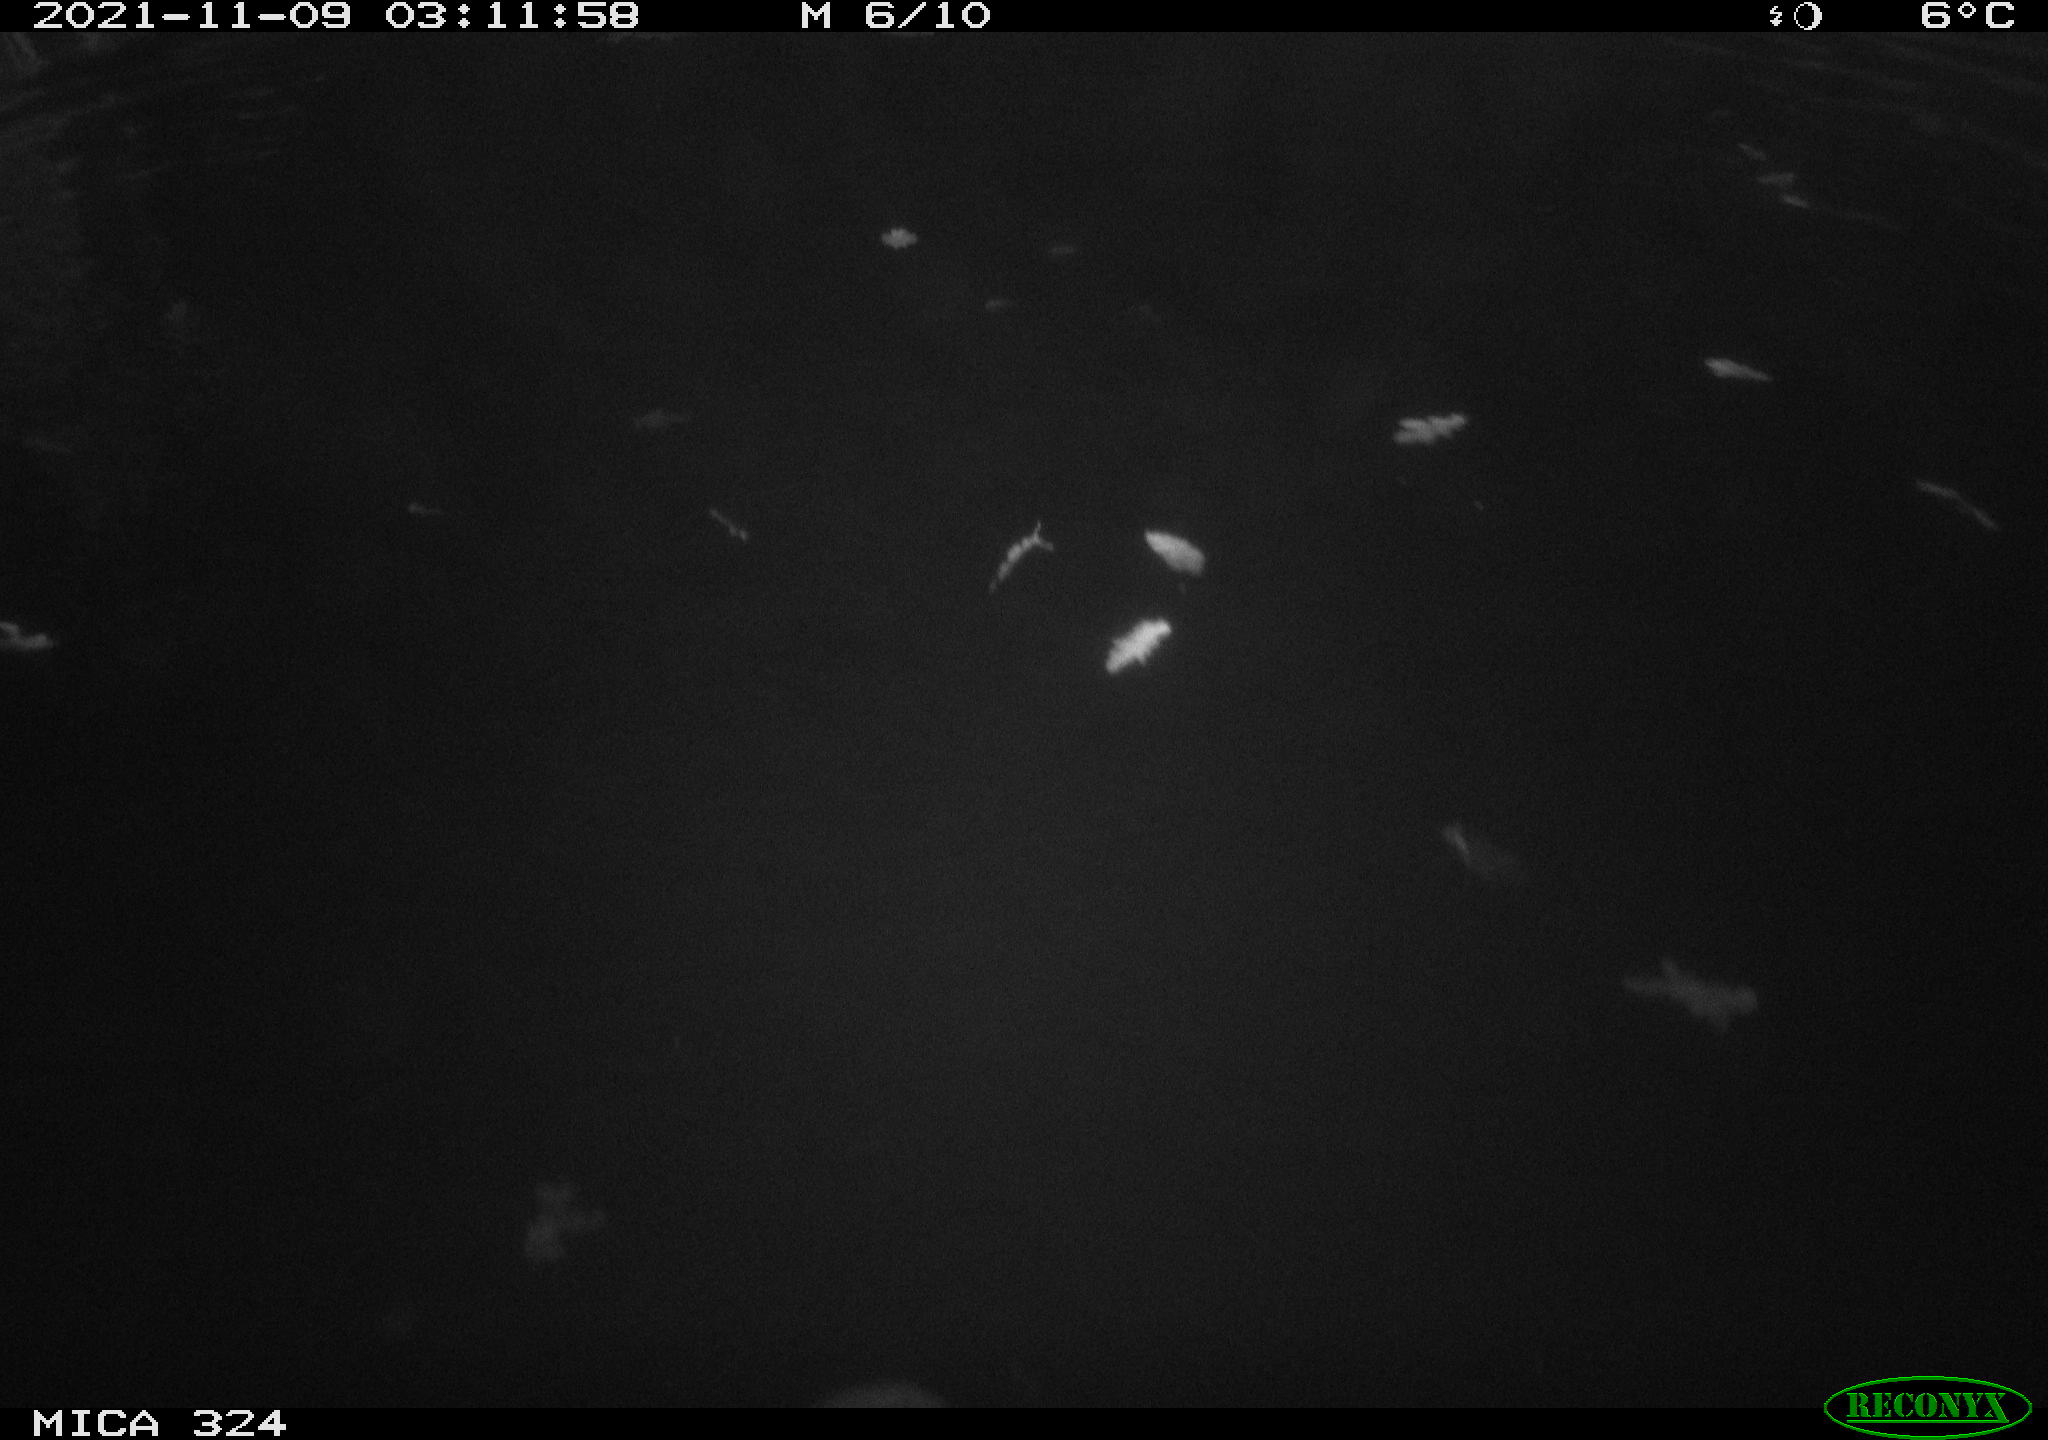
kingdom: Animalia
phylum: Chordata
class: Mammalia
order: Rodentia
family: Myocastoridae
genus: Myocastor
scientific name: Myocastor coypus
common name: Coypu
